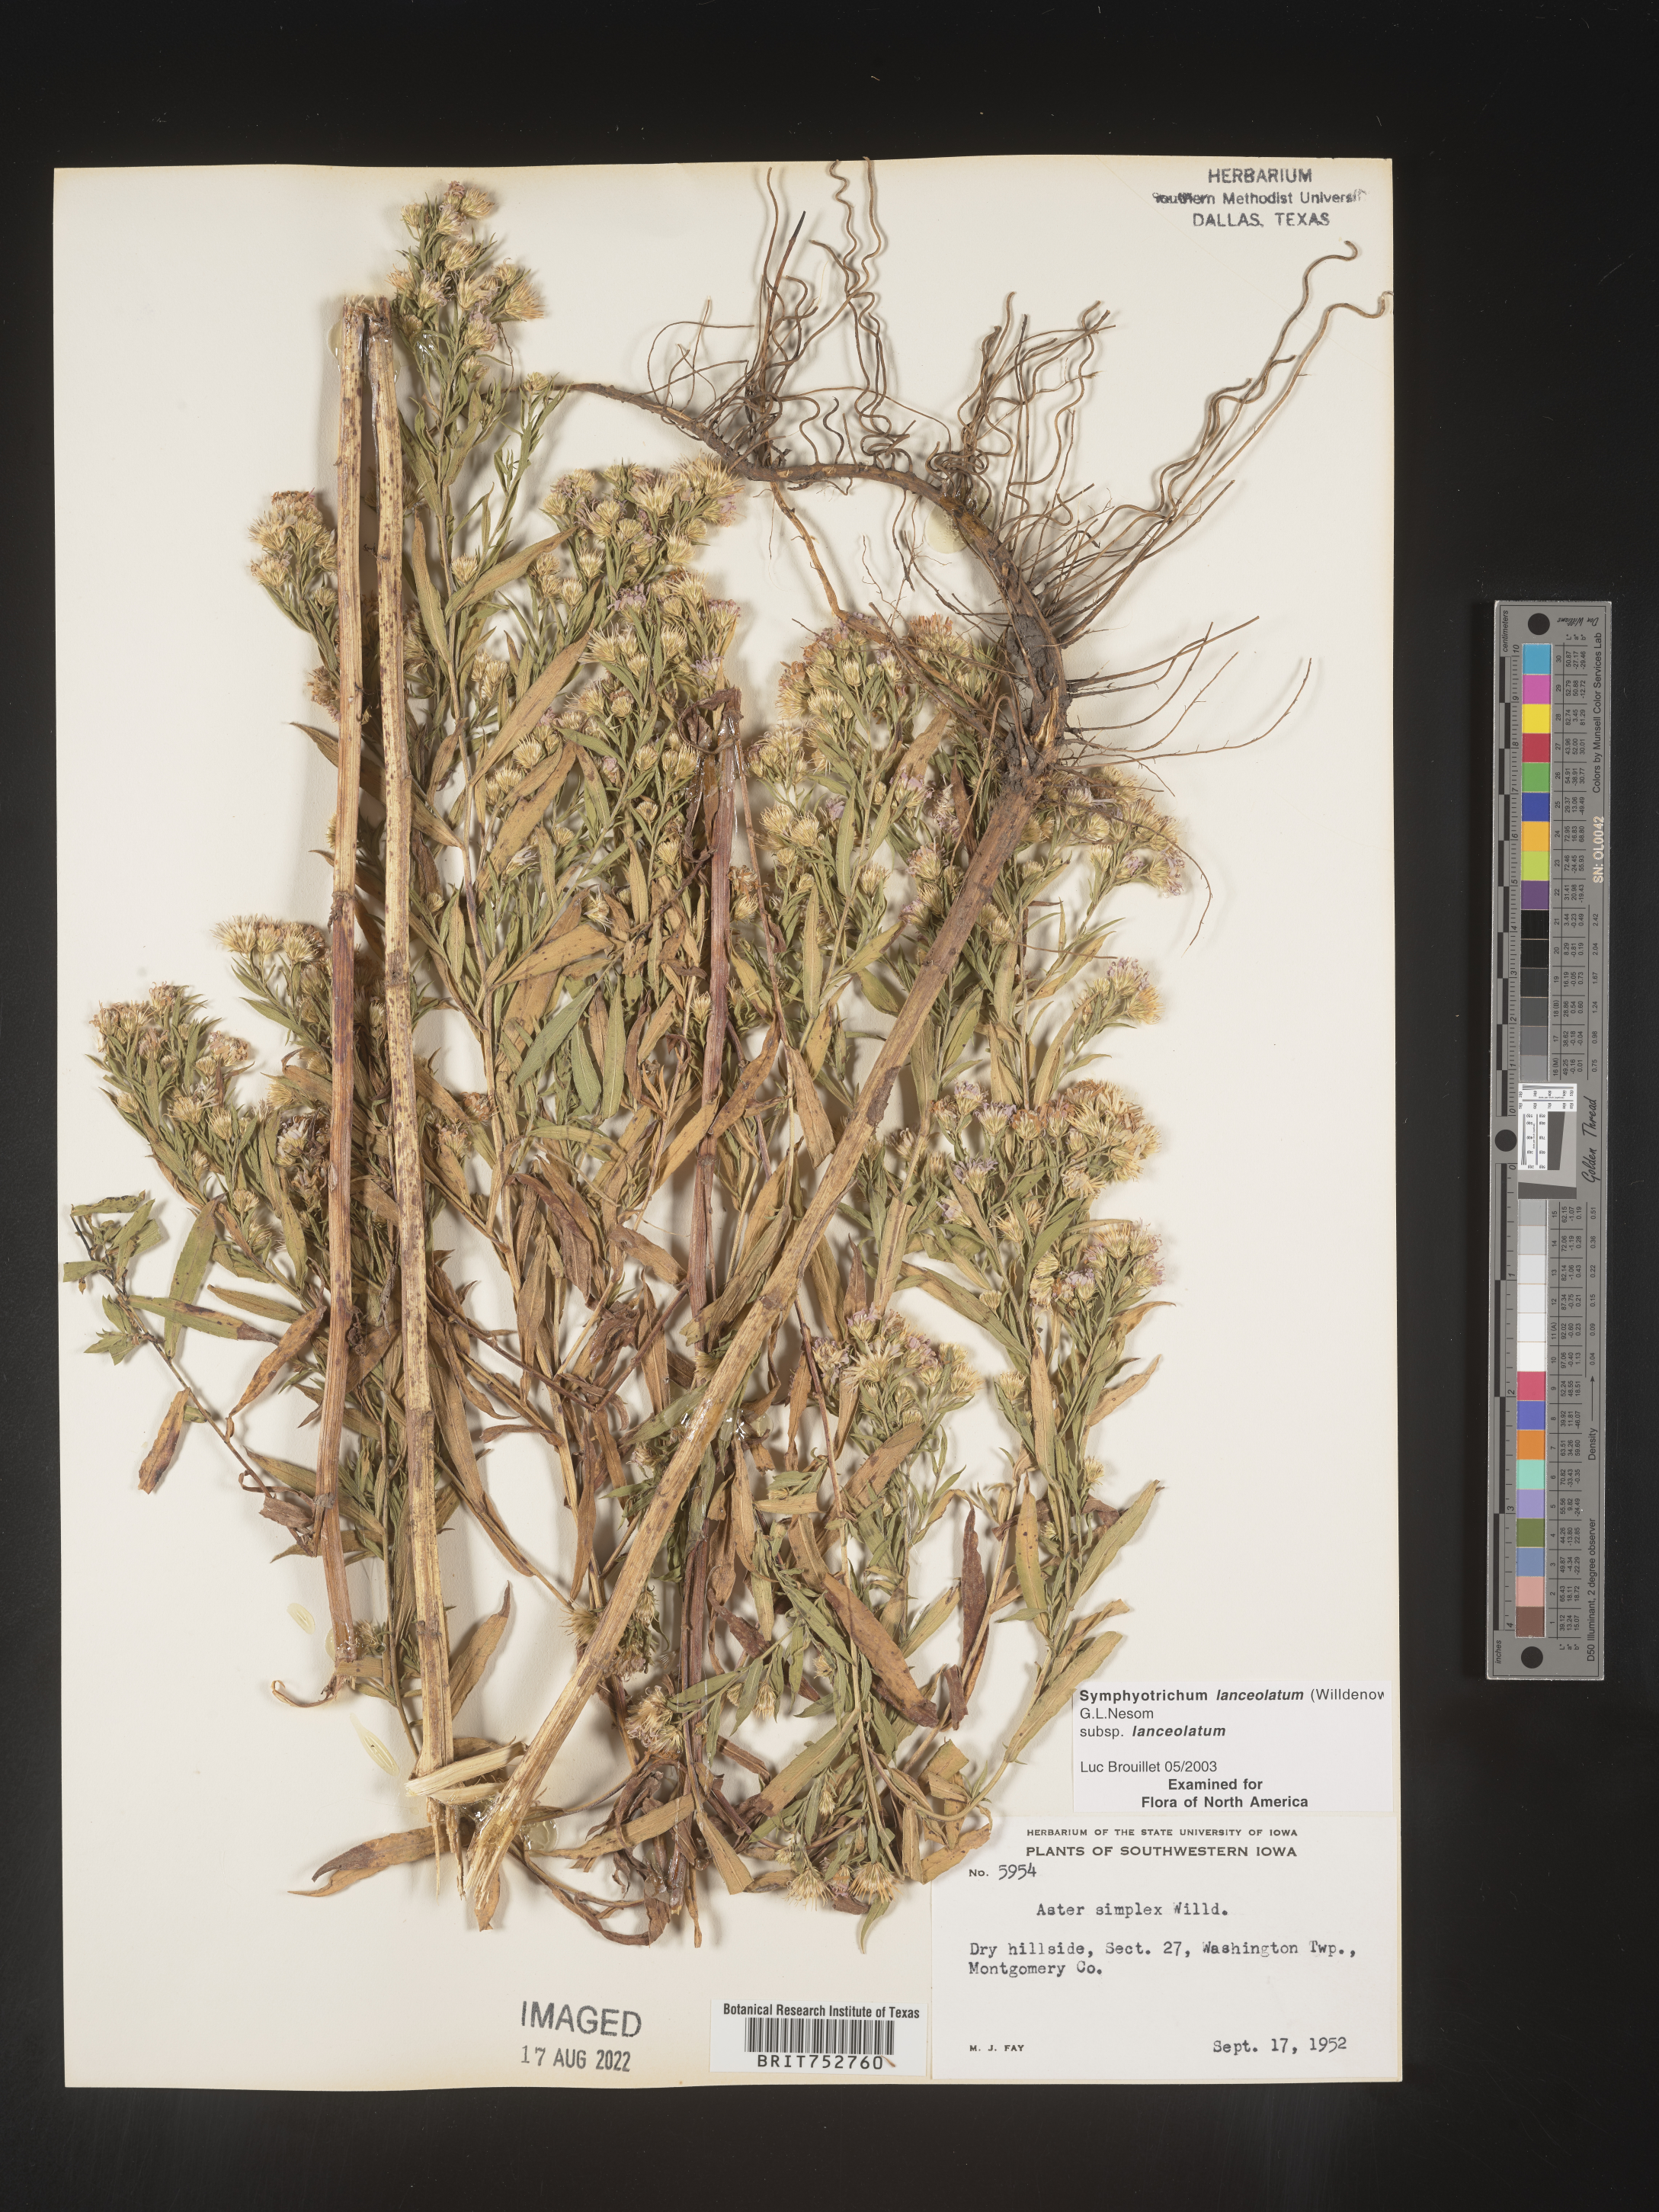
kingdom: Plantae
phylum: Tracheophyta
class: Magnoliopsida
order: Asterales
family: Asteraceae
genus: Symphyotrichum
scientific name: Symphyotrichum lanceolatum
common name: Panicled aster
